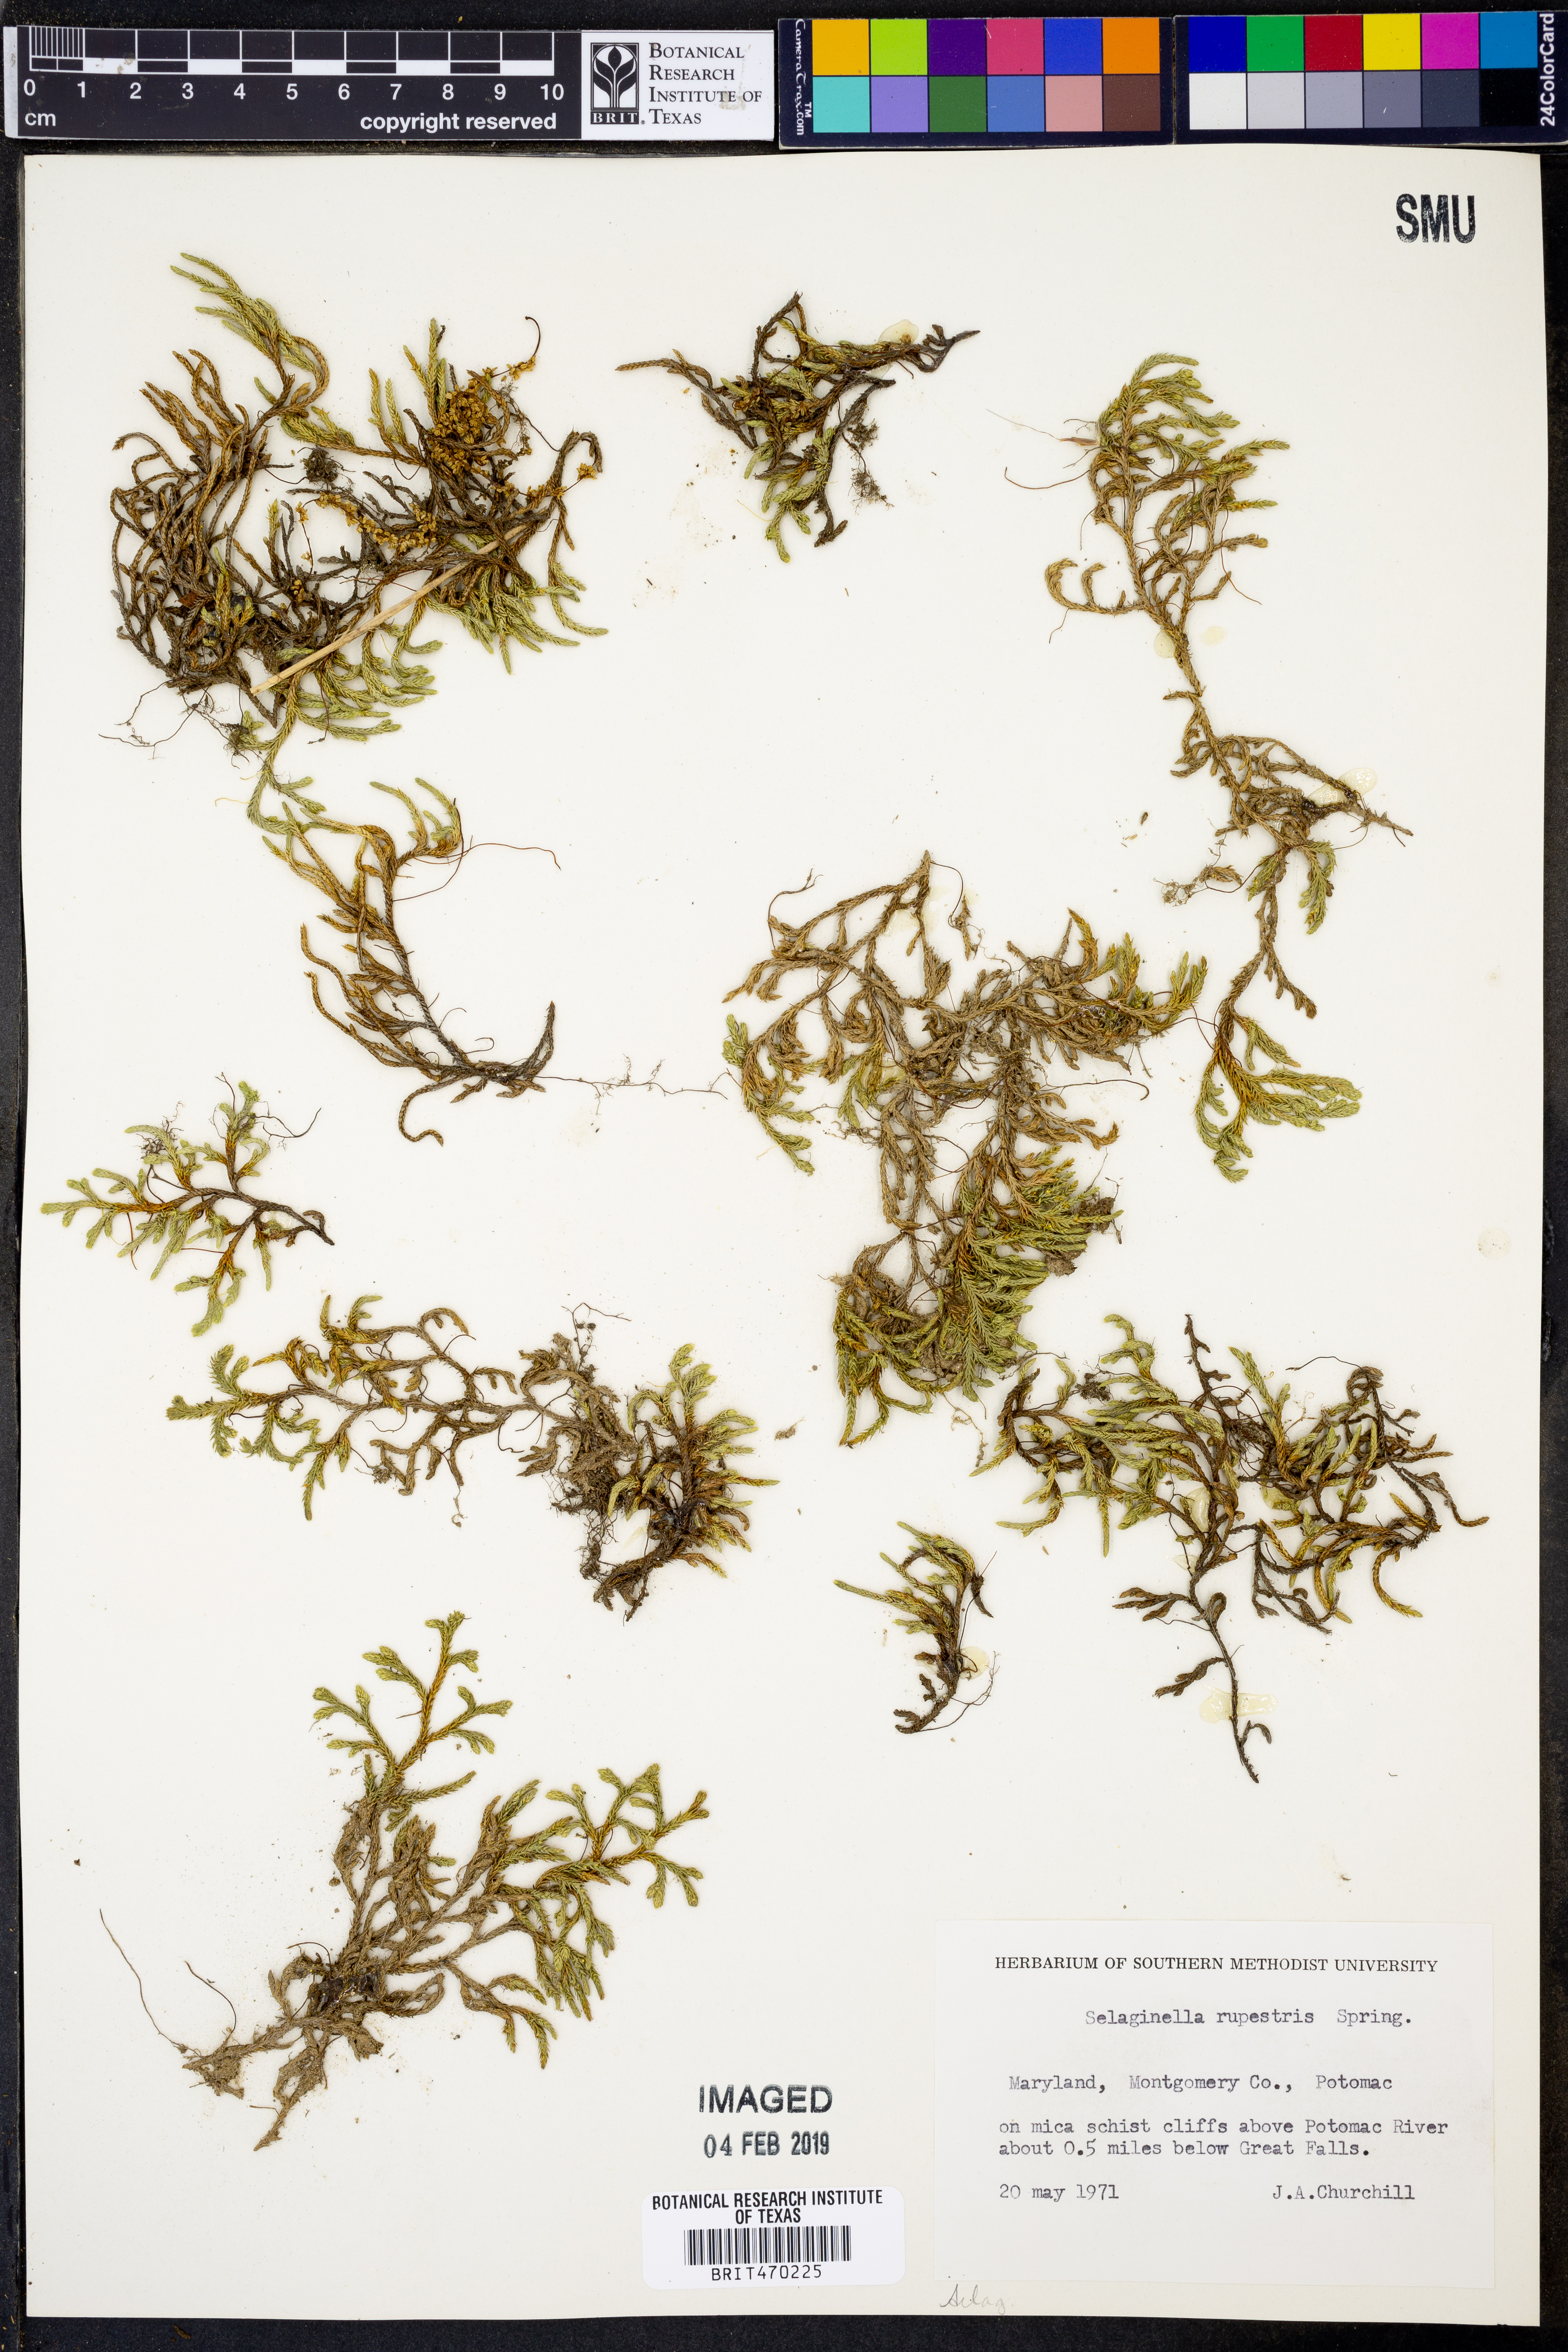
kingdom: Plantae
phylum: Tracheophyta
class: Lycopodiopsida
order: Selaginellales
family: Selaginellaceae
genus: Selaginella
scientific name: Selaginella rupestris
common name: Dwarf spikemoss
